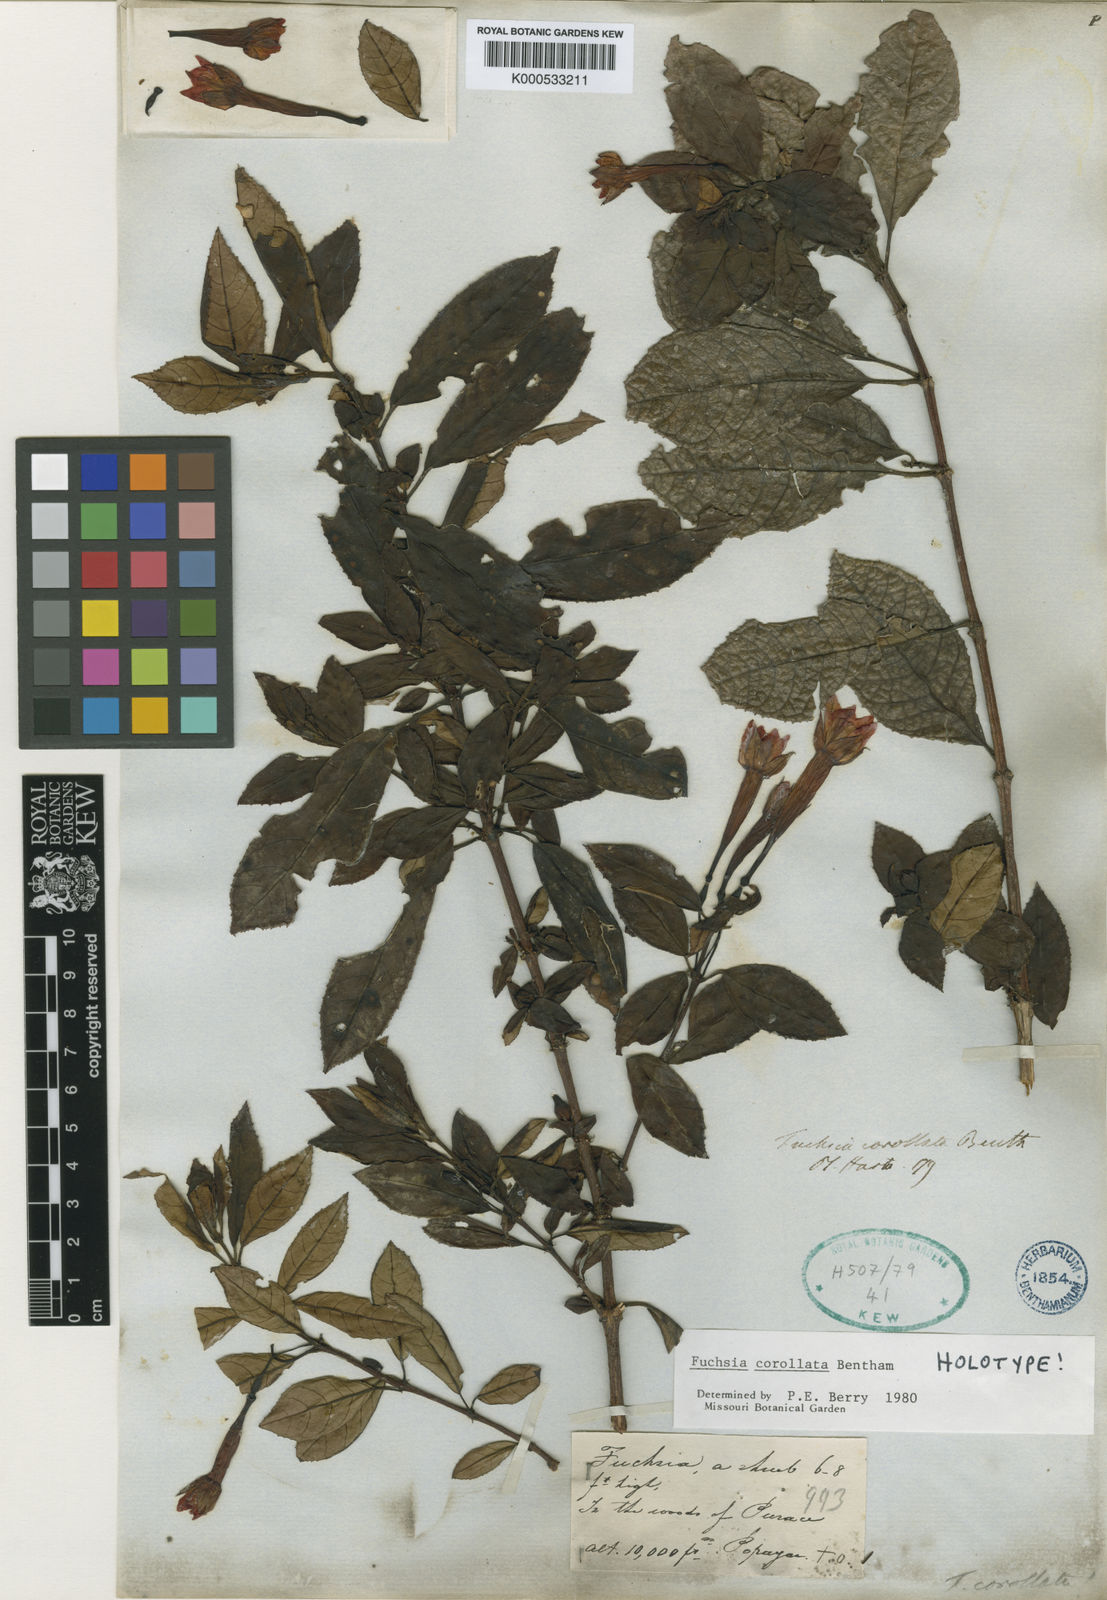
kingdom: Plantae
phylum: Tracheophyta
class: Magnoliopsida
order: Myrtales
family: Onagraceae
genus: Fuchsia
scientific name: Fuchsia corollata
